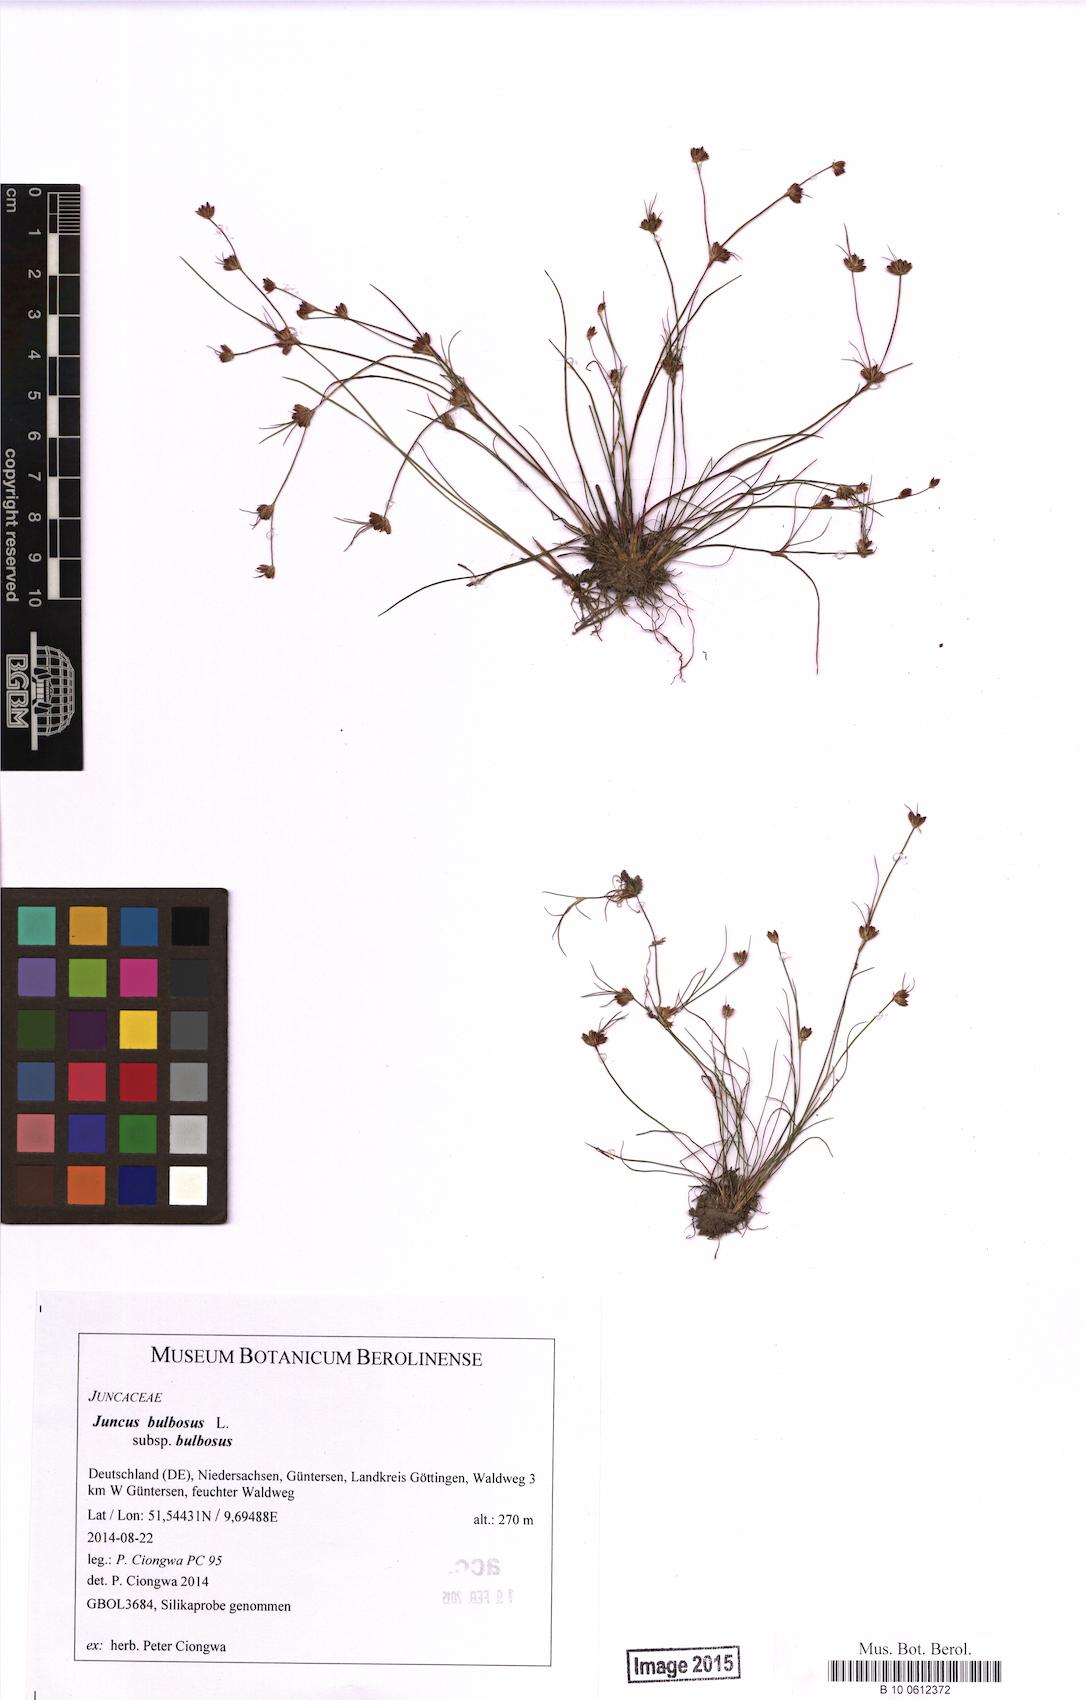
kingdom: Plantae
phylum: Tracheophyta
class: Liliopsida
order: Poales
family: Juncaceae
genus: Juncus
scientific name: Juncus bulbosus
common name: Bulbous rush
